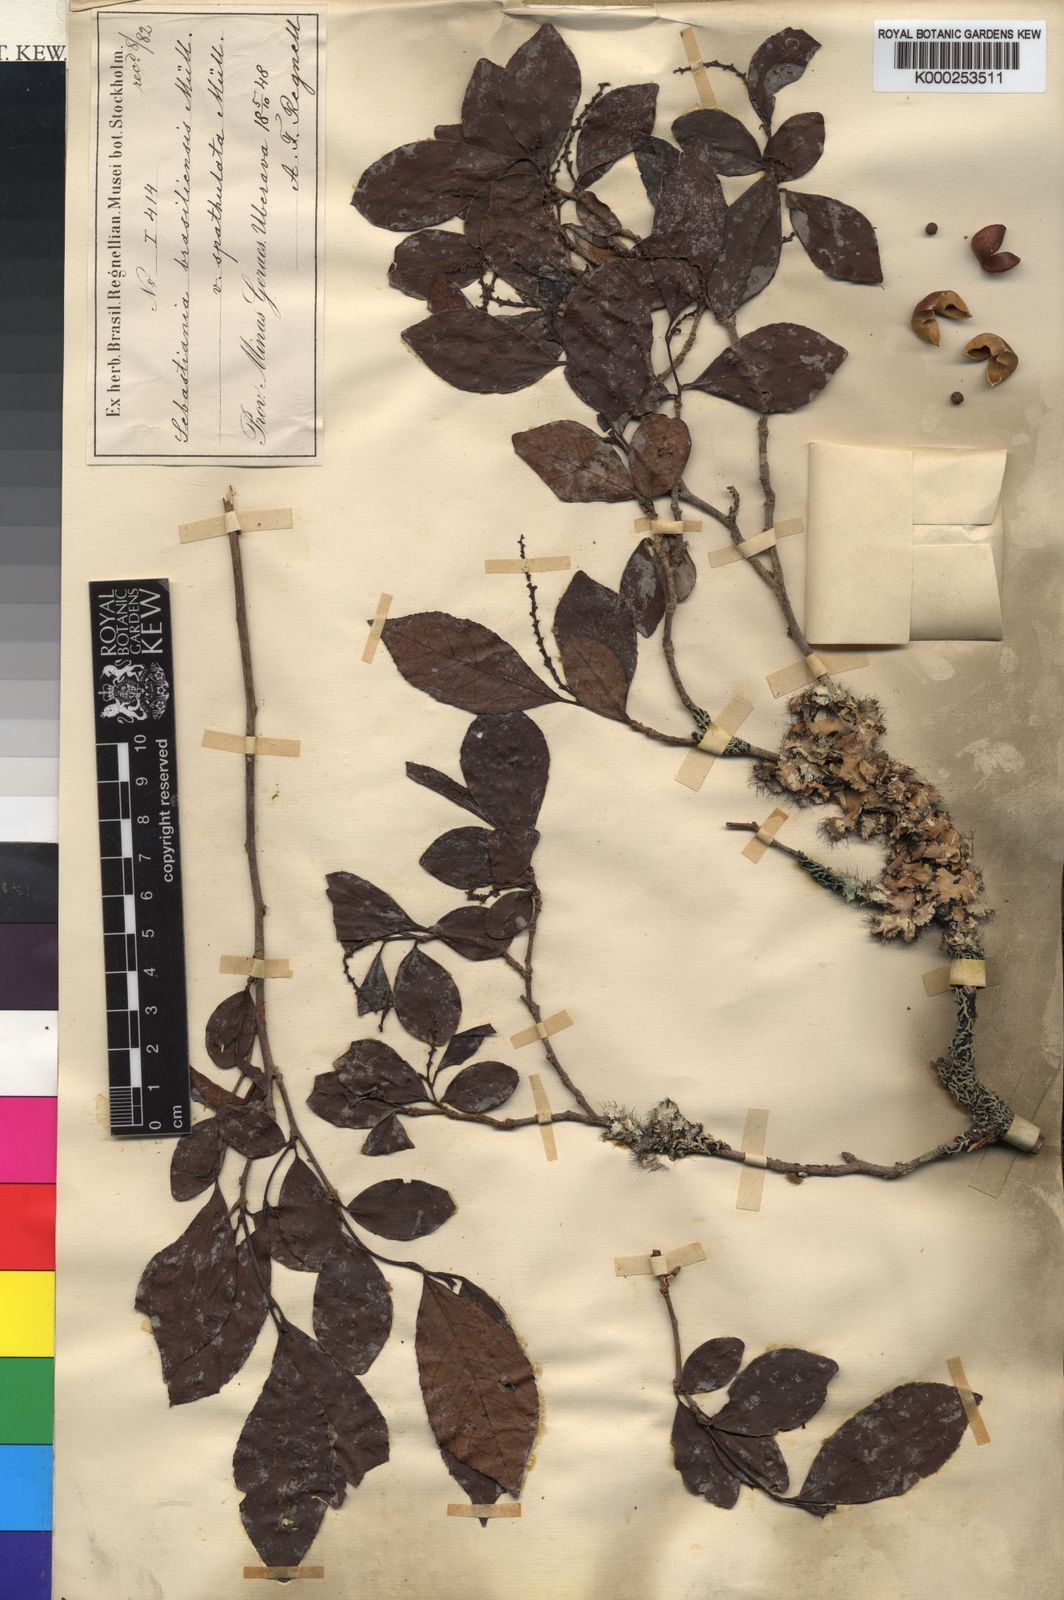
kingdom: Plantae
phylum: Tracheophyta
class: Magnoliopsida
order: Malpighiales
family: Euphorbiaceae
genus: Sebastiania
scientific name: Sebastiania
